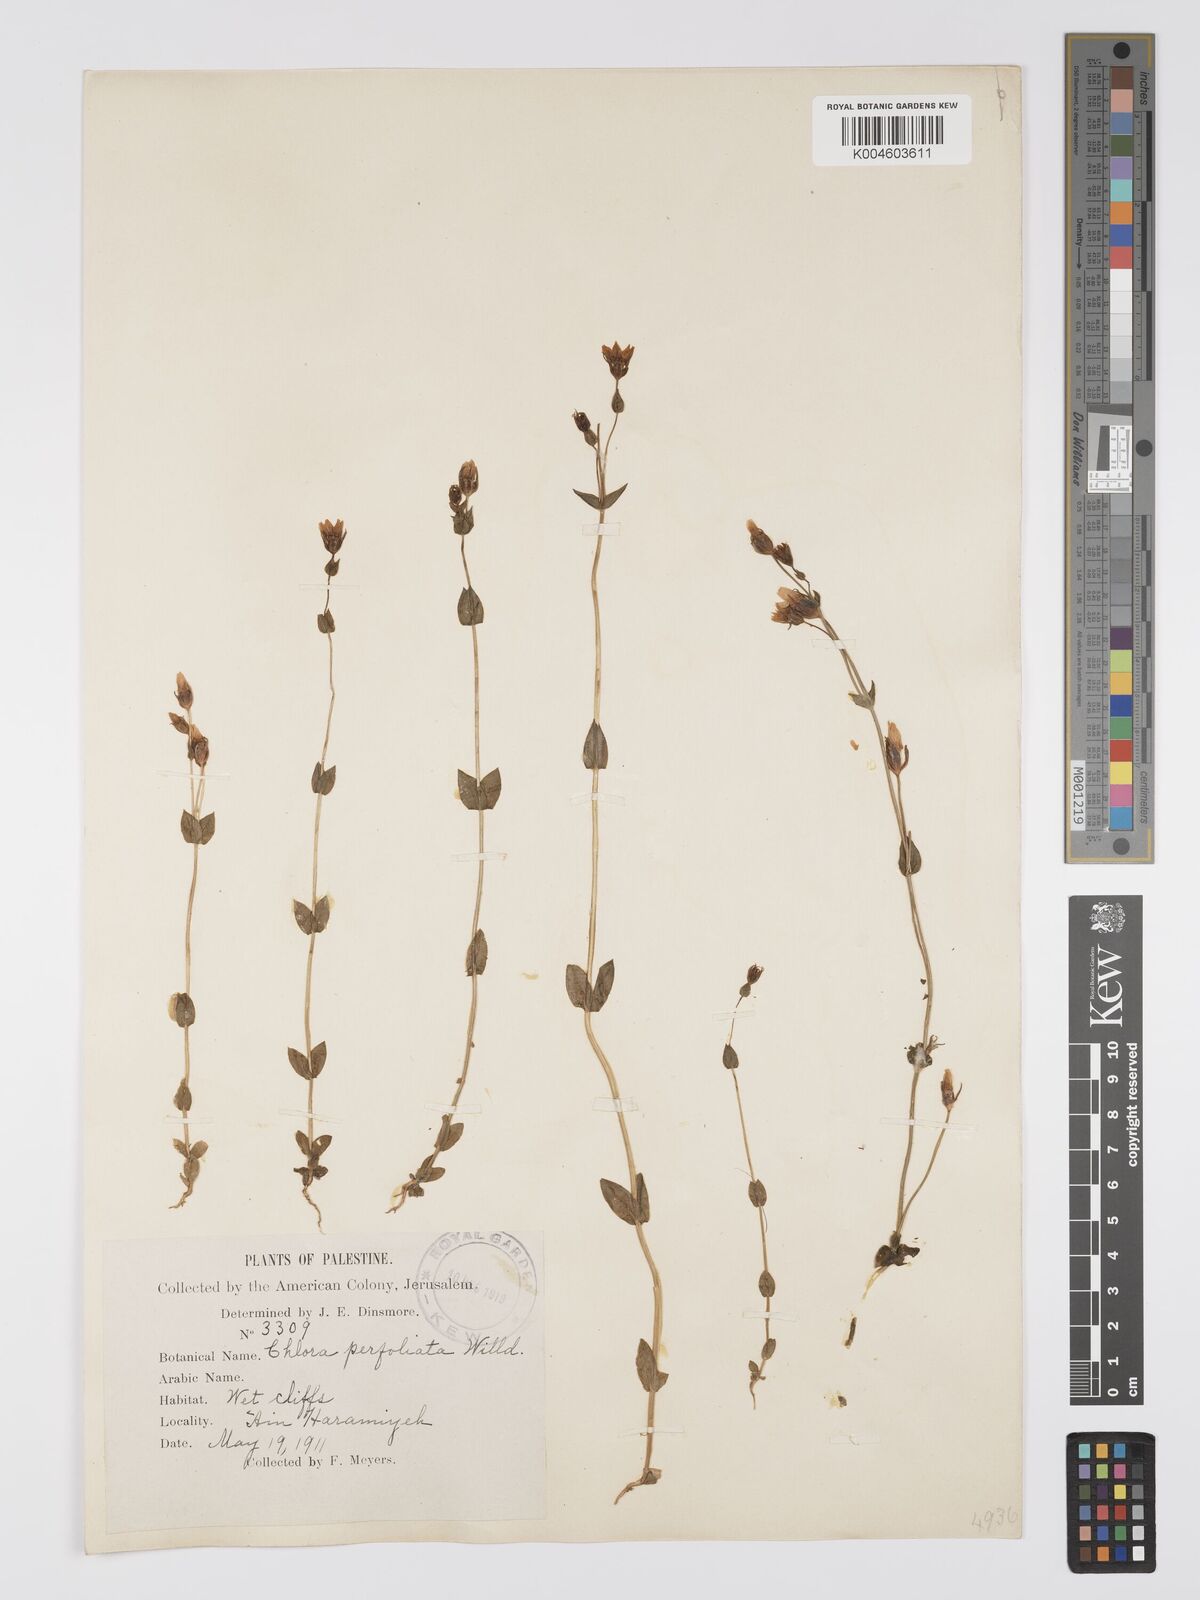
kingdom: Plantae
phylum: Tracheophyta
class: Magnoliopsida
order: Gentianales
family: Gentianaceae
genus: Blackstonia
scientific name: Blackstonia acuminata
